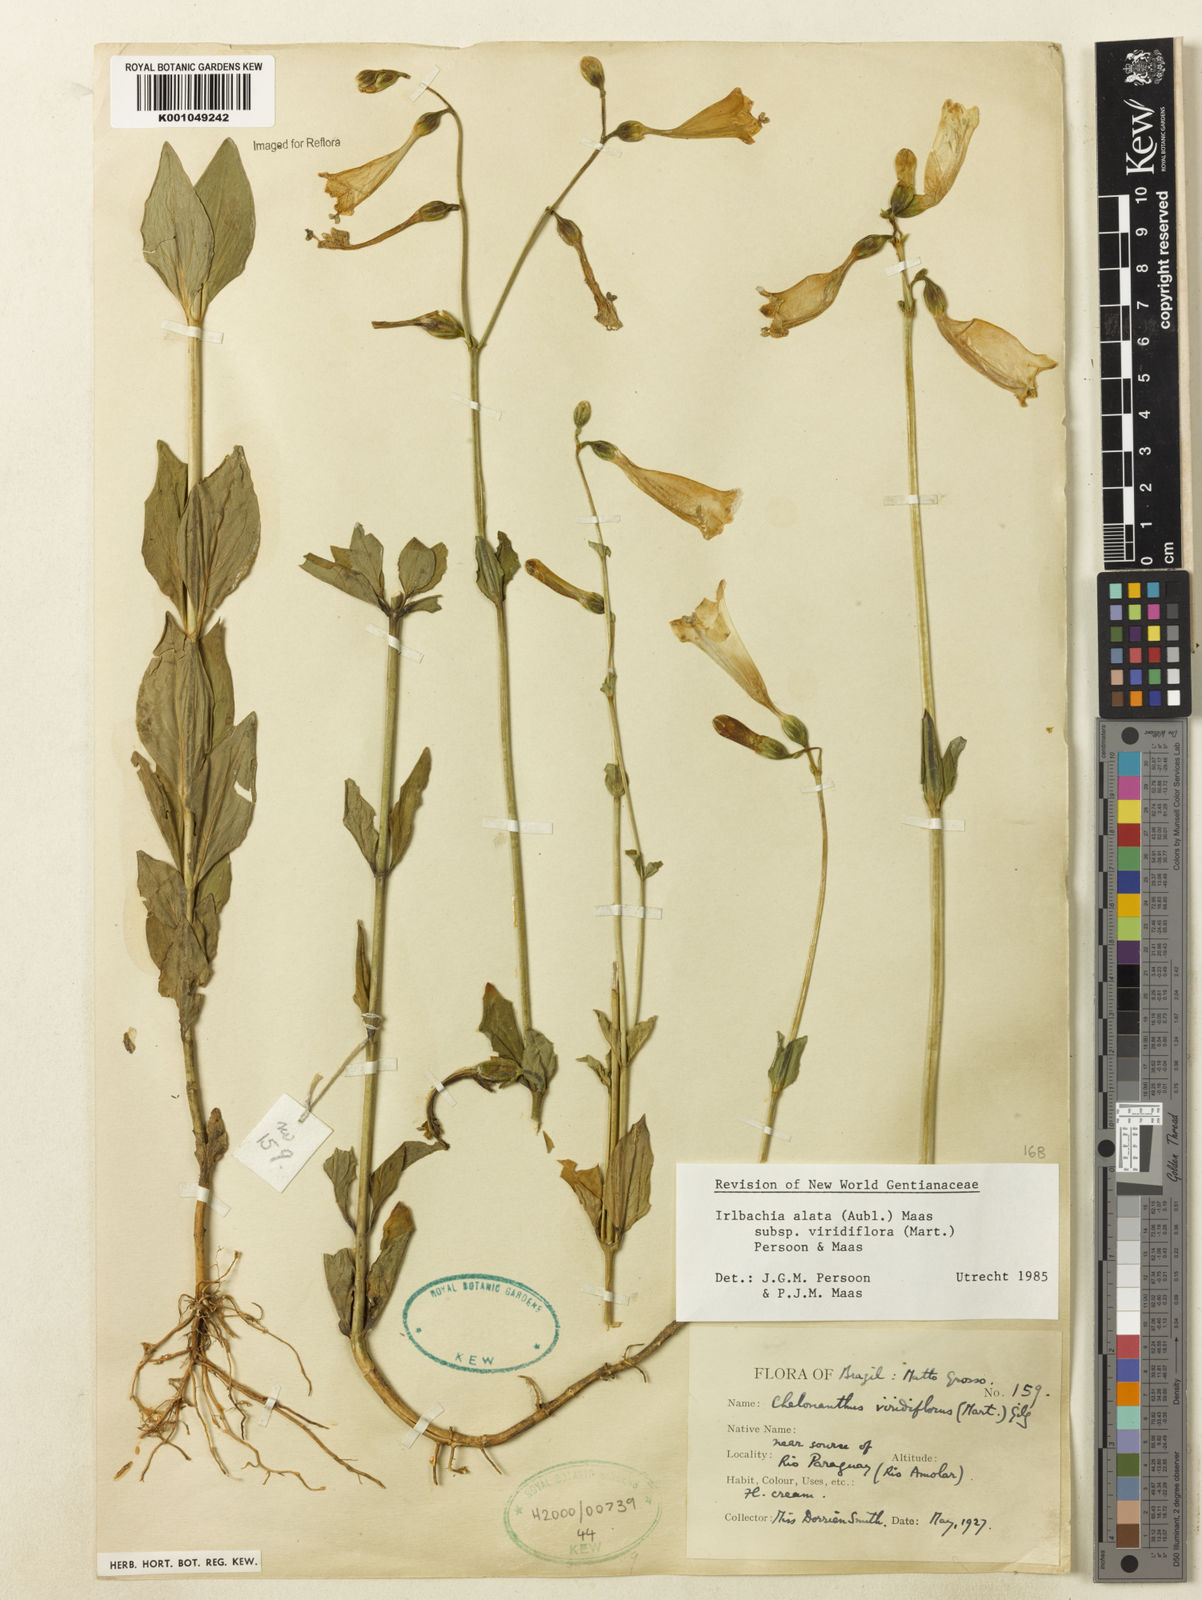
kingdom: Plantae
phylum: Tracheophyta
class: Magnoliopsida
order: Gentianales
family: Gentianaceae
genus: Chelonanthus
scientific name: Chelonanthus viridiflorus
